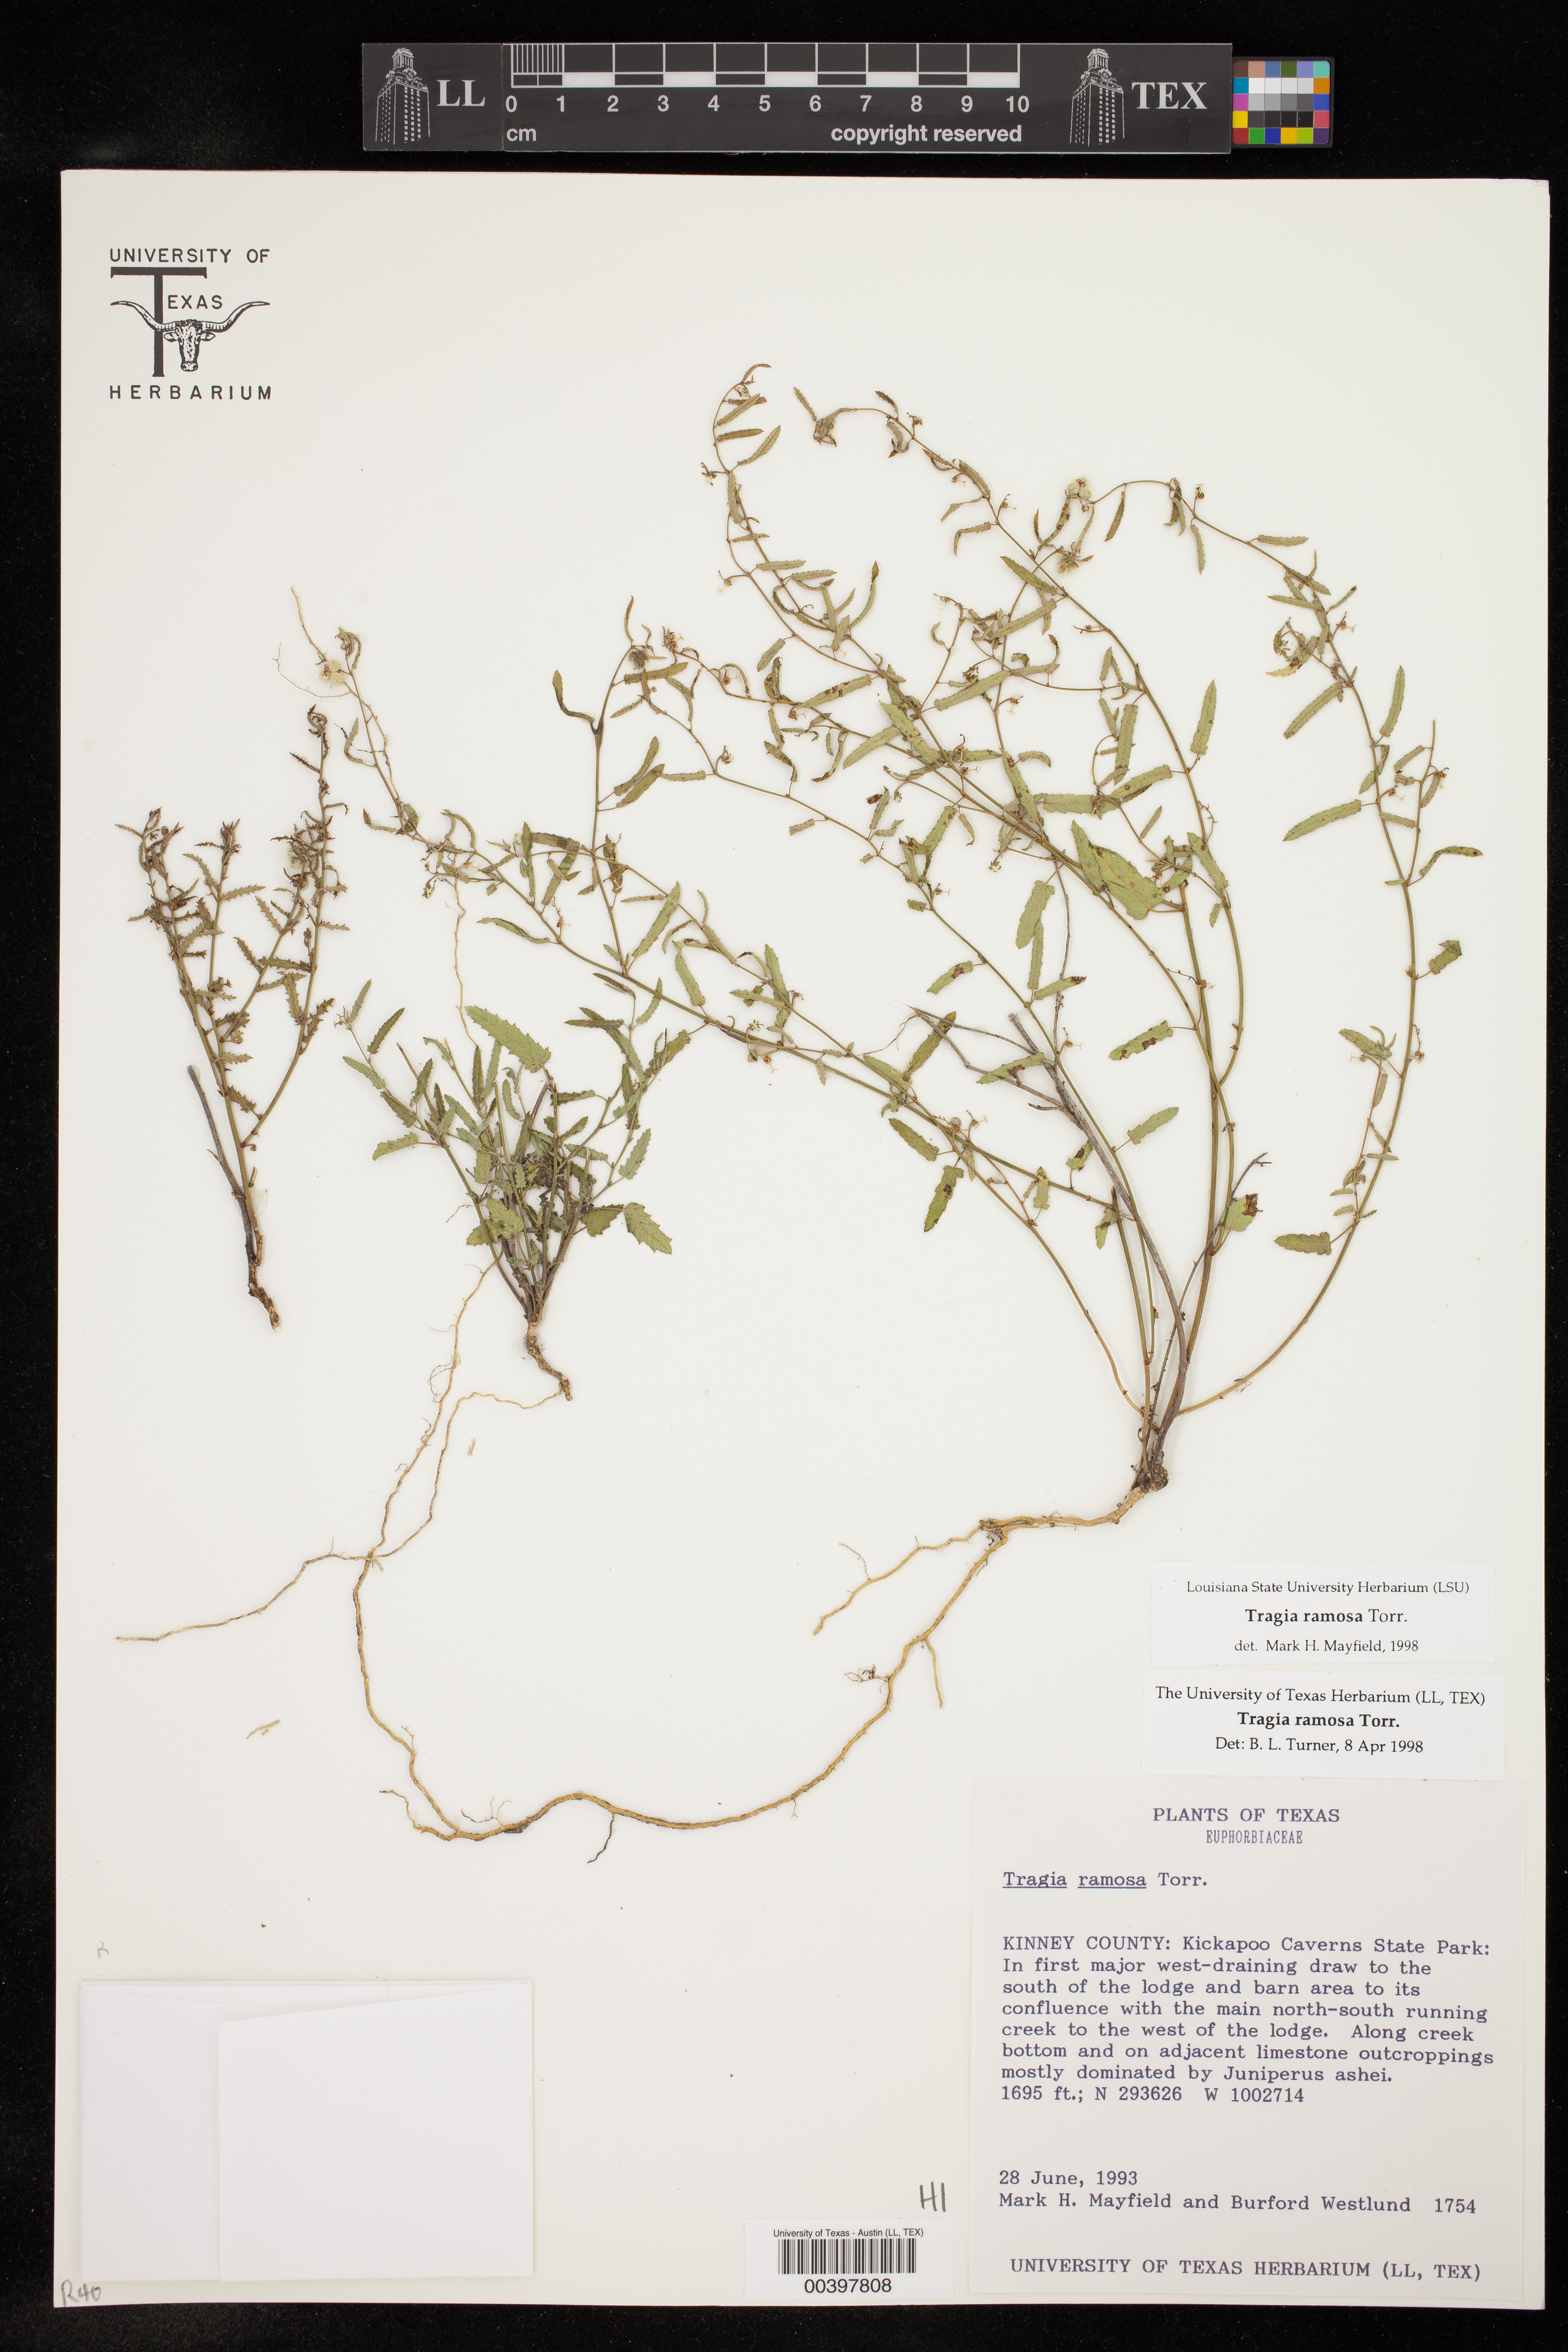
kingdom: Plantae
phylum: Tracheophyta
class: Magnoliopsida
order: Malpighiales
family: Euphorbiaceae
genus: Tragia
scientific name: Tragia ramosa
